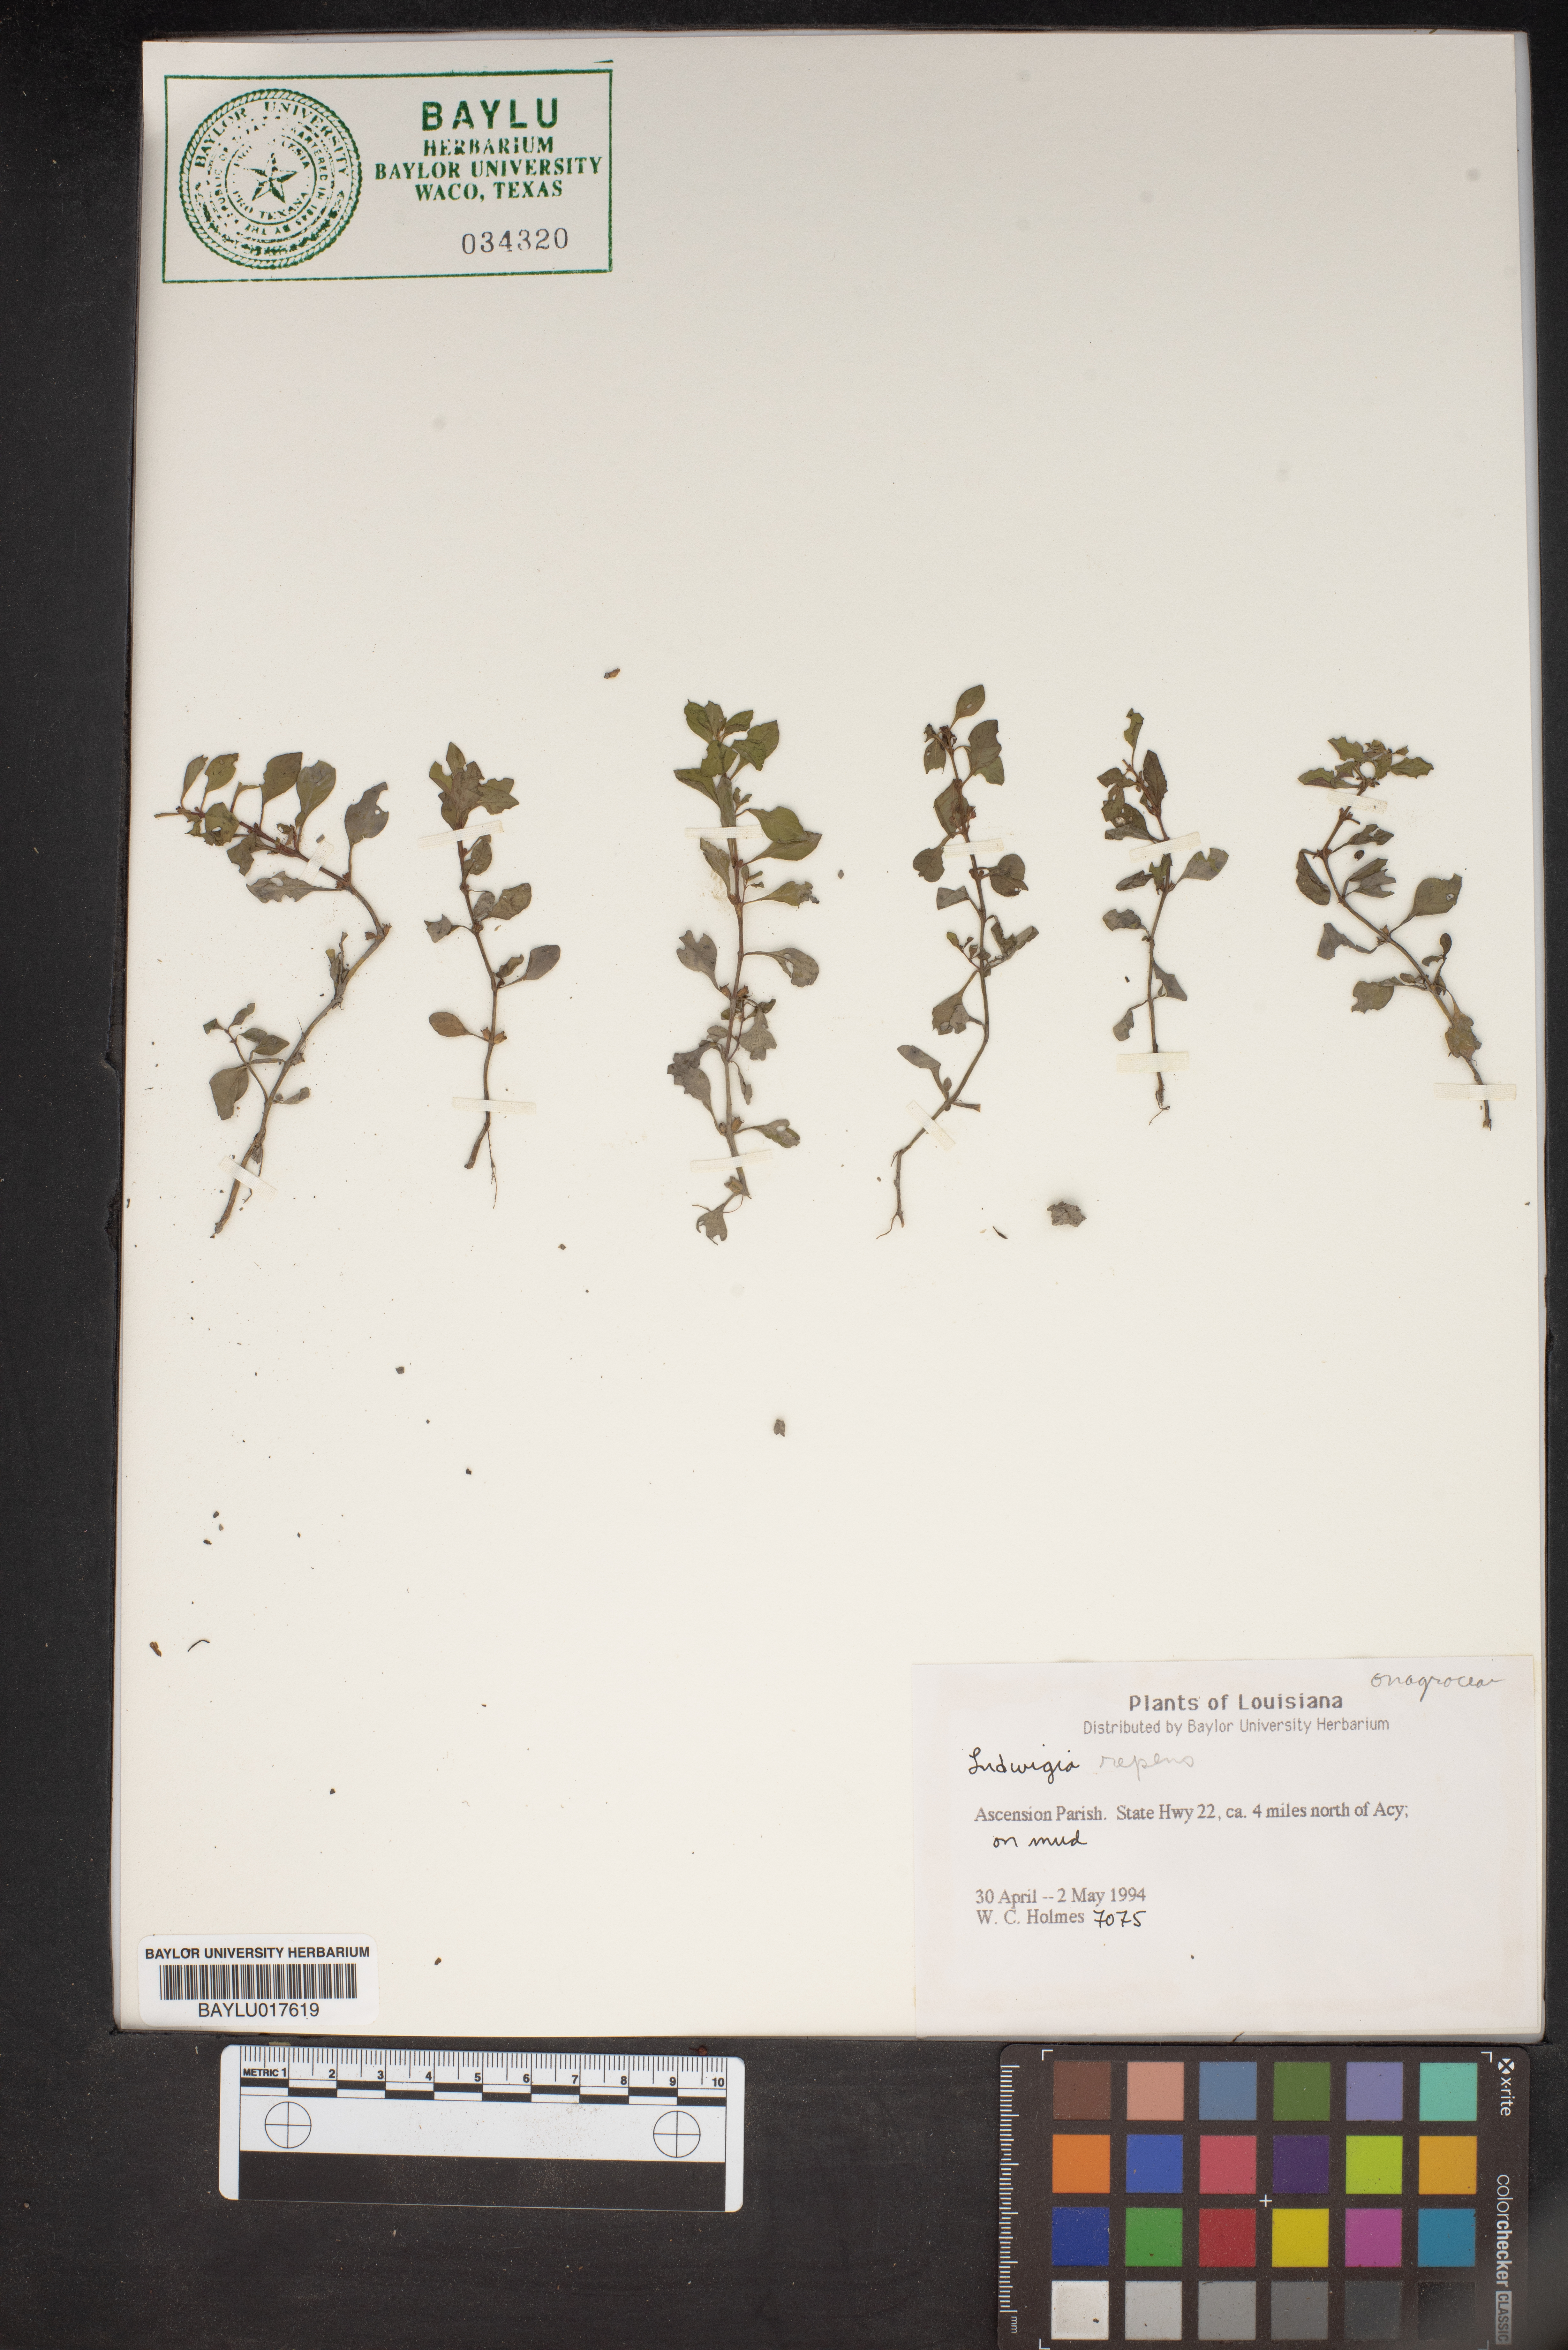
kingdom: Plantae
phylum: Tracheophyta
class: Magnoliopsida
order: Myrtales
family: Onagraceae
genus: Ludwigia
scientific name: Ludwigia repens
